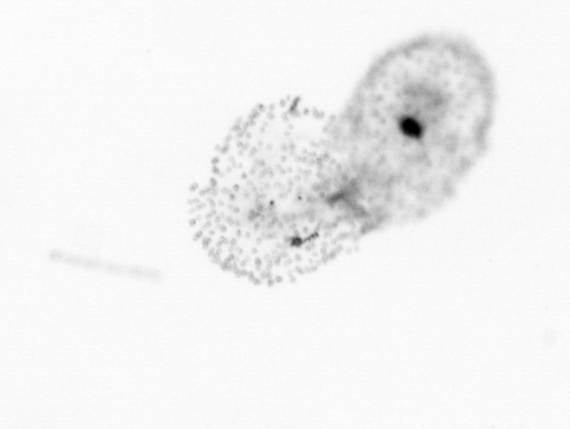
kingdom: Chromista
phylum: Ochrophyta
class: Bacillariophyceae
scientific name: Bacillariophyceae
